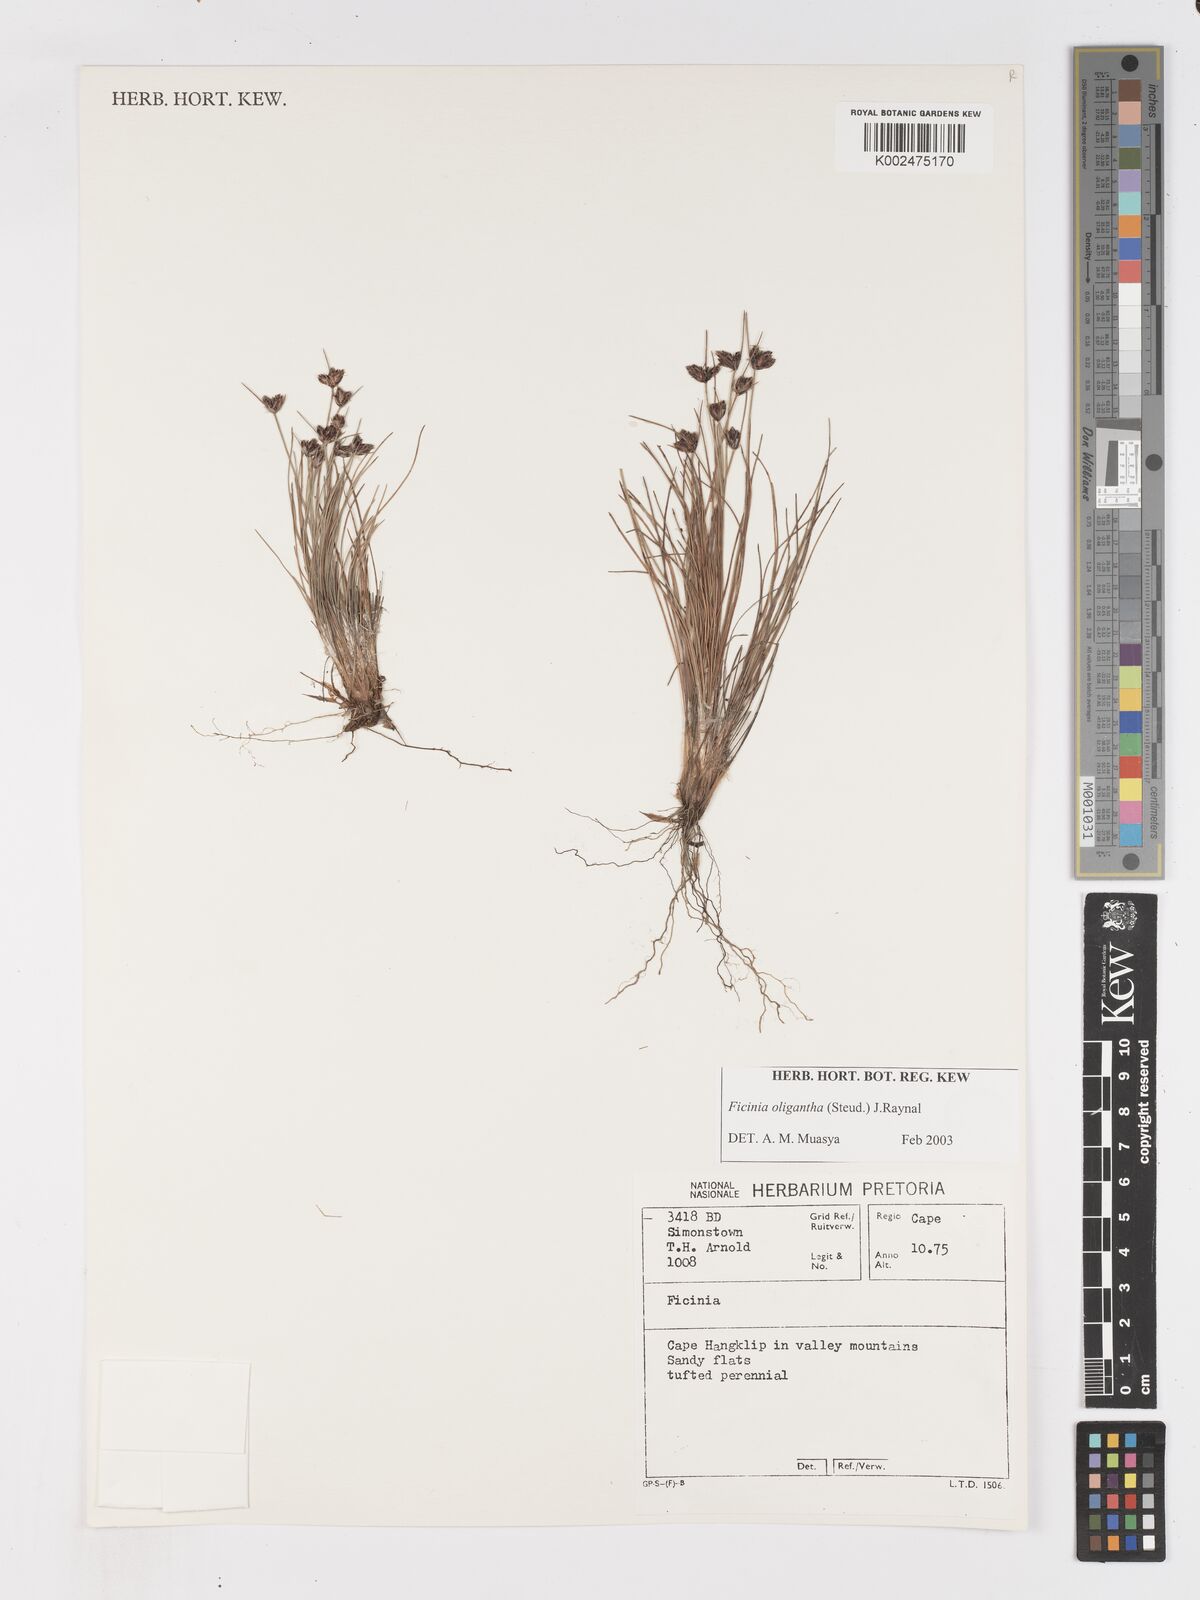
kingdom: Plantae
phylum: Tracheophyta
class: Liliopsida
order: Poales
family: Cyperaceae
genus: Ficinia
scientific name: Ficinia stolonifera
